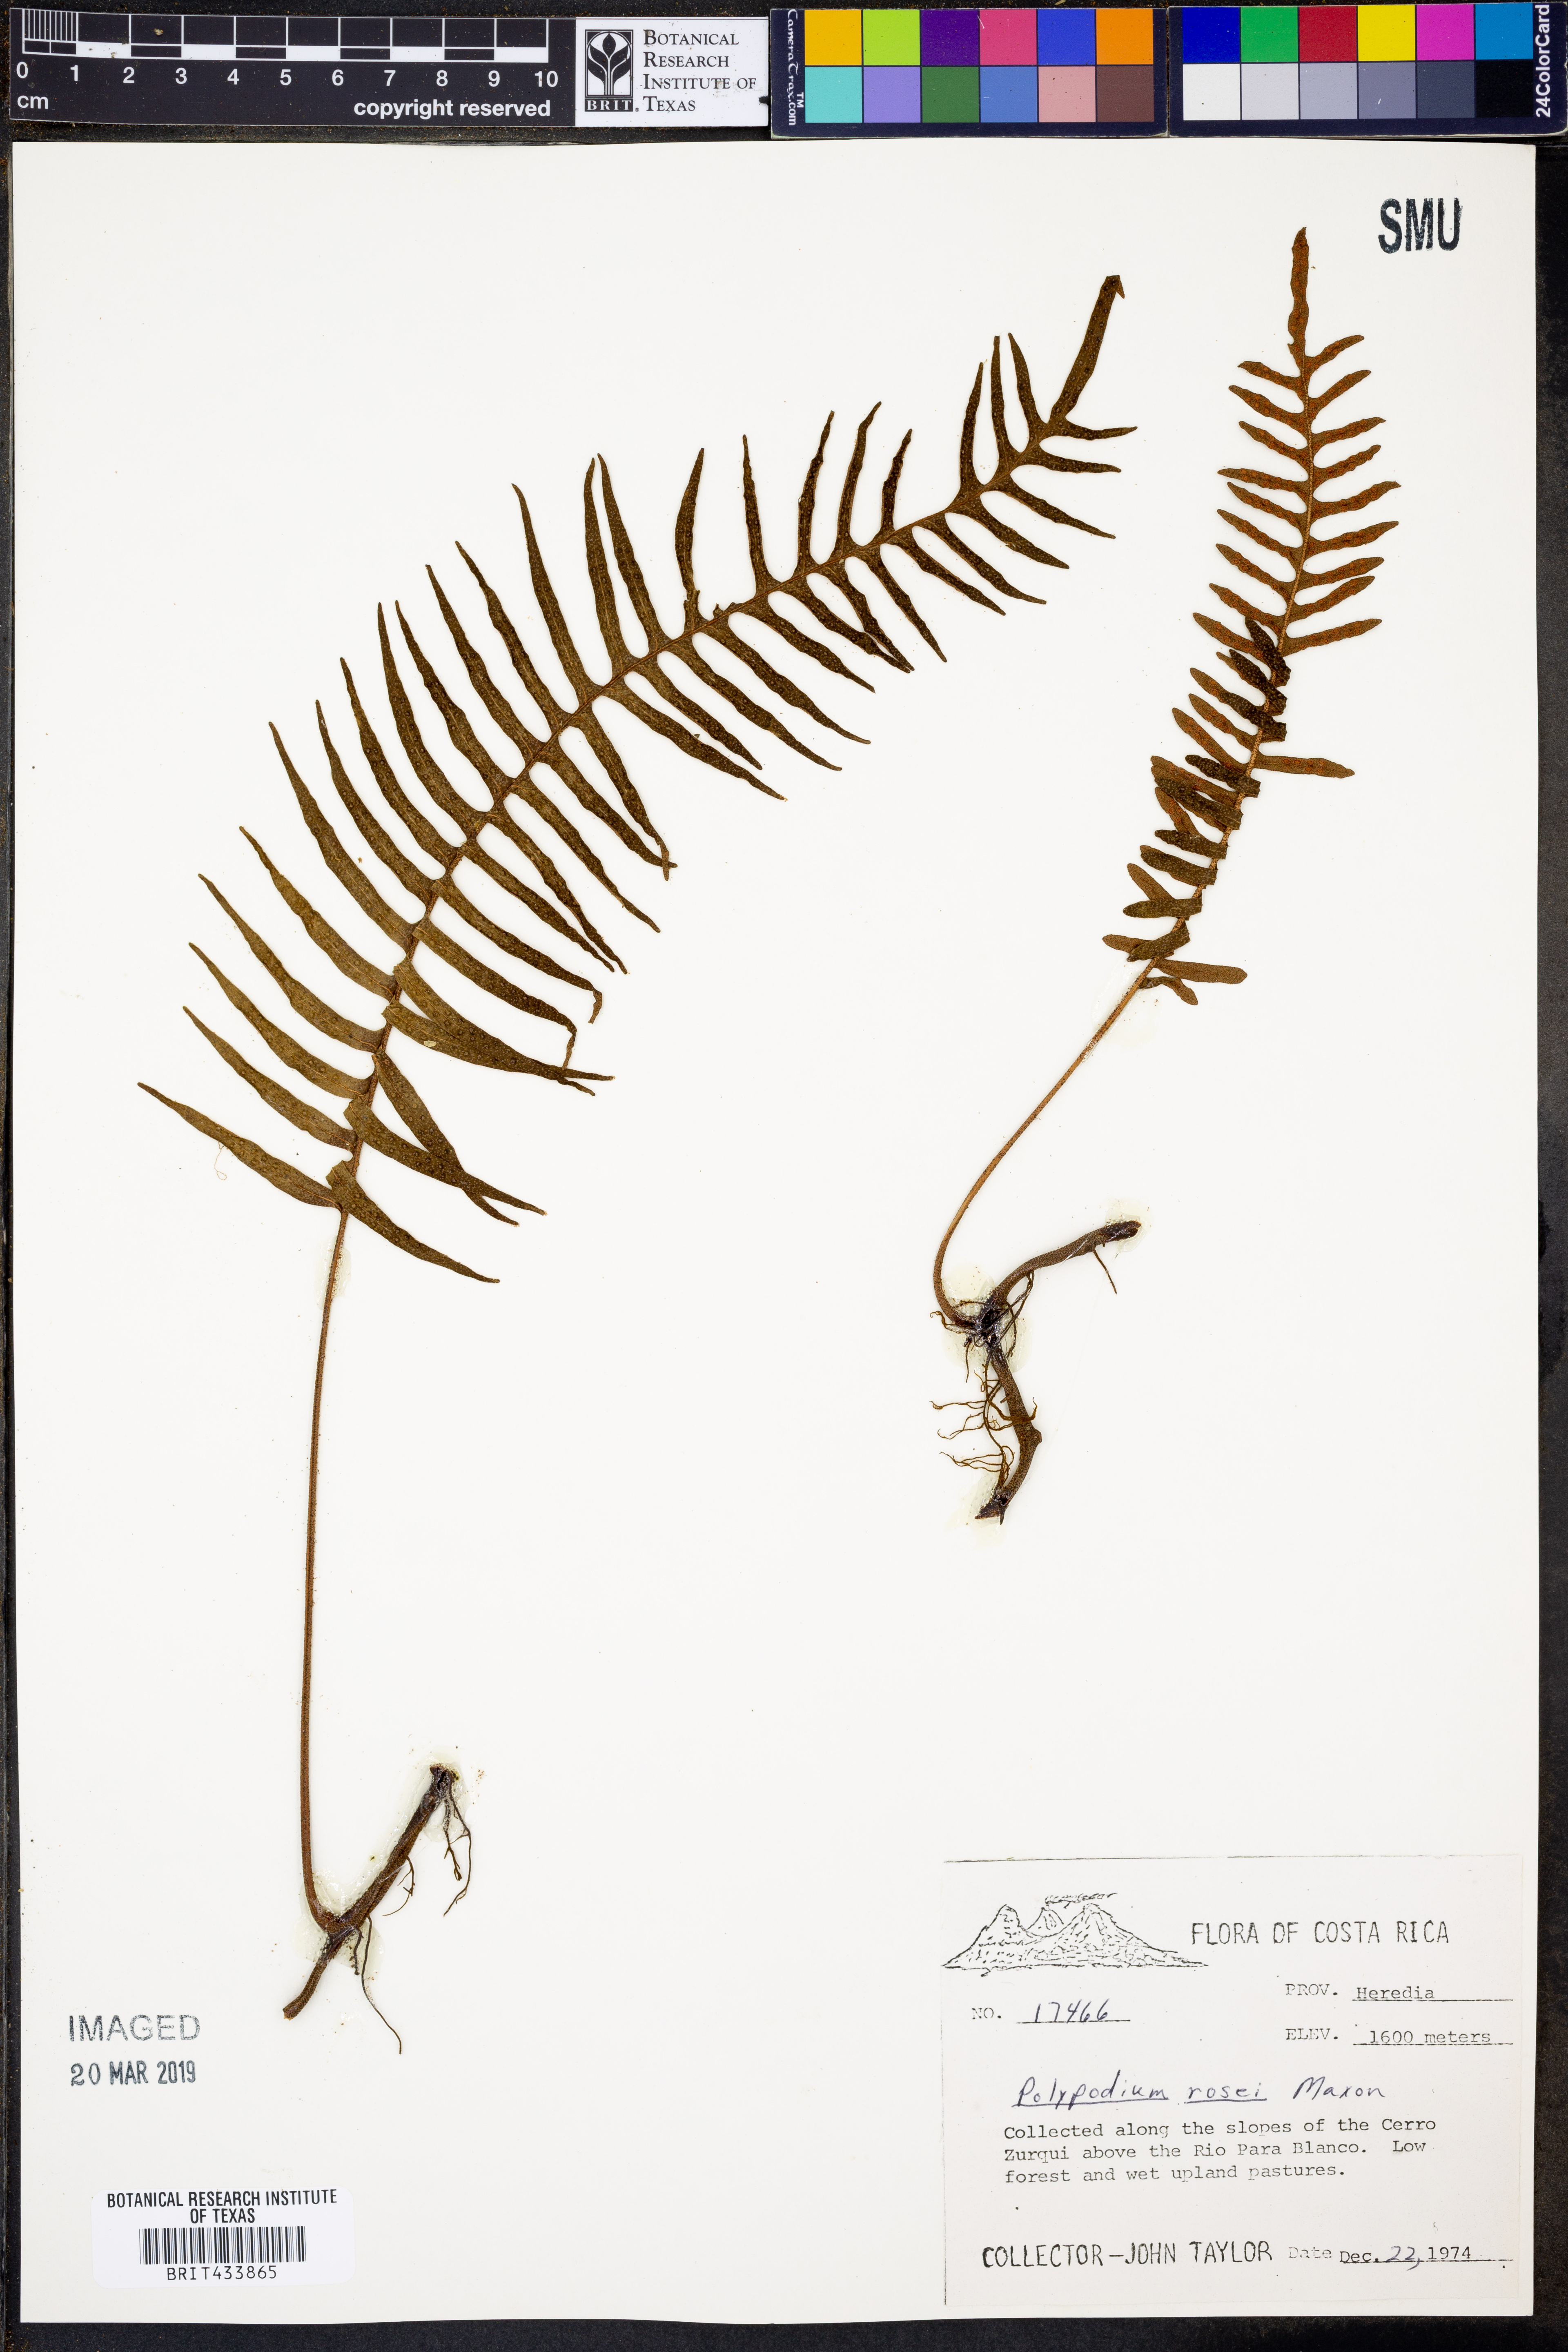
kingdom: Plantae
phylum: Tracheophyta
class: Polypodiopsida
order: Polypodiales
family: Polypodiaceae
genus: Pleopeltis
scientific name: Pleopeltis rosei
